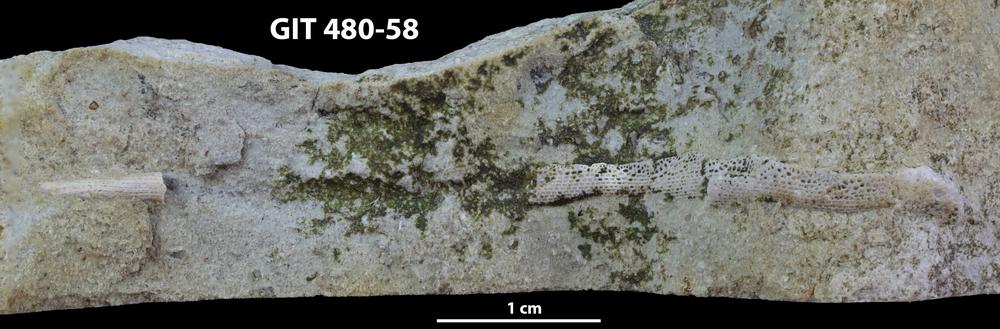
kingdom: Animalia
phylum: Bryozoa
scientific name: Bryozoa
